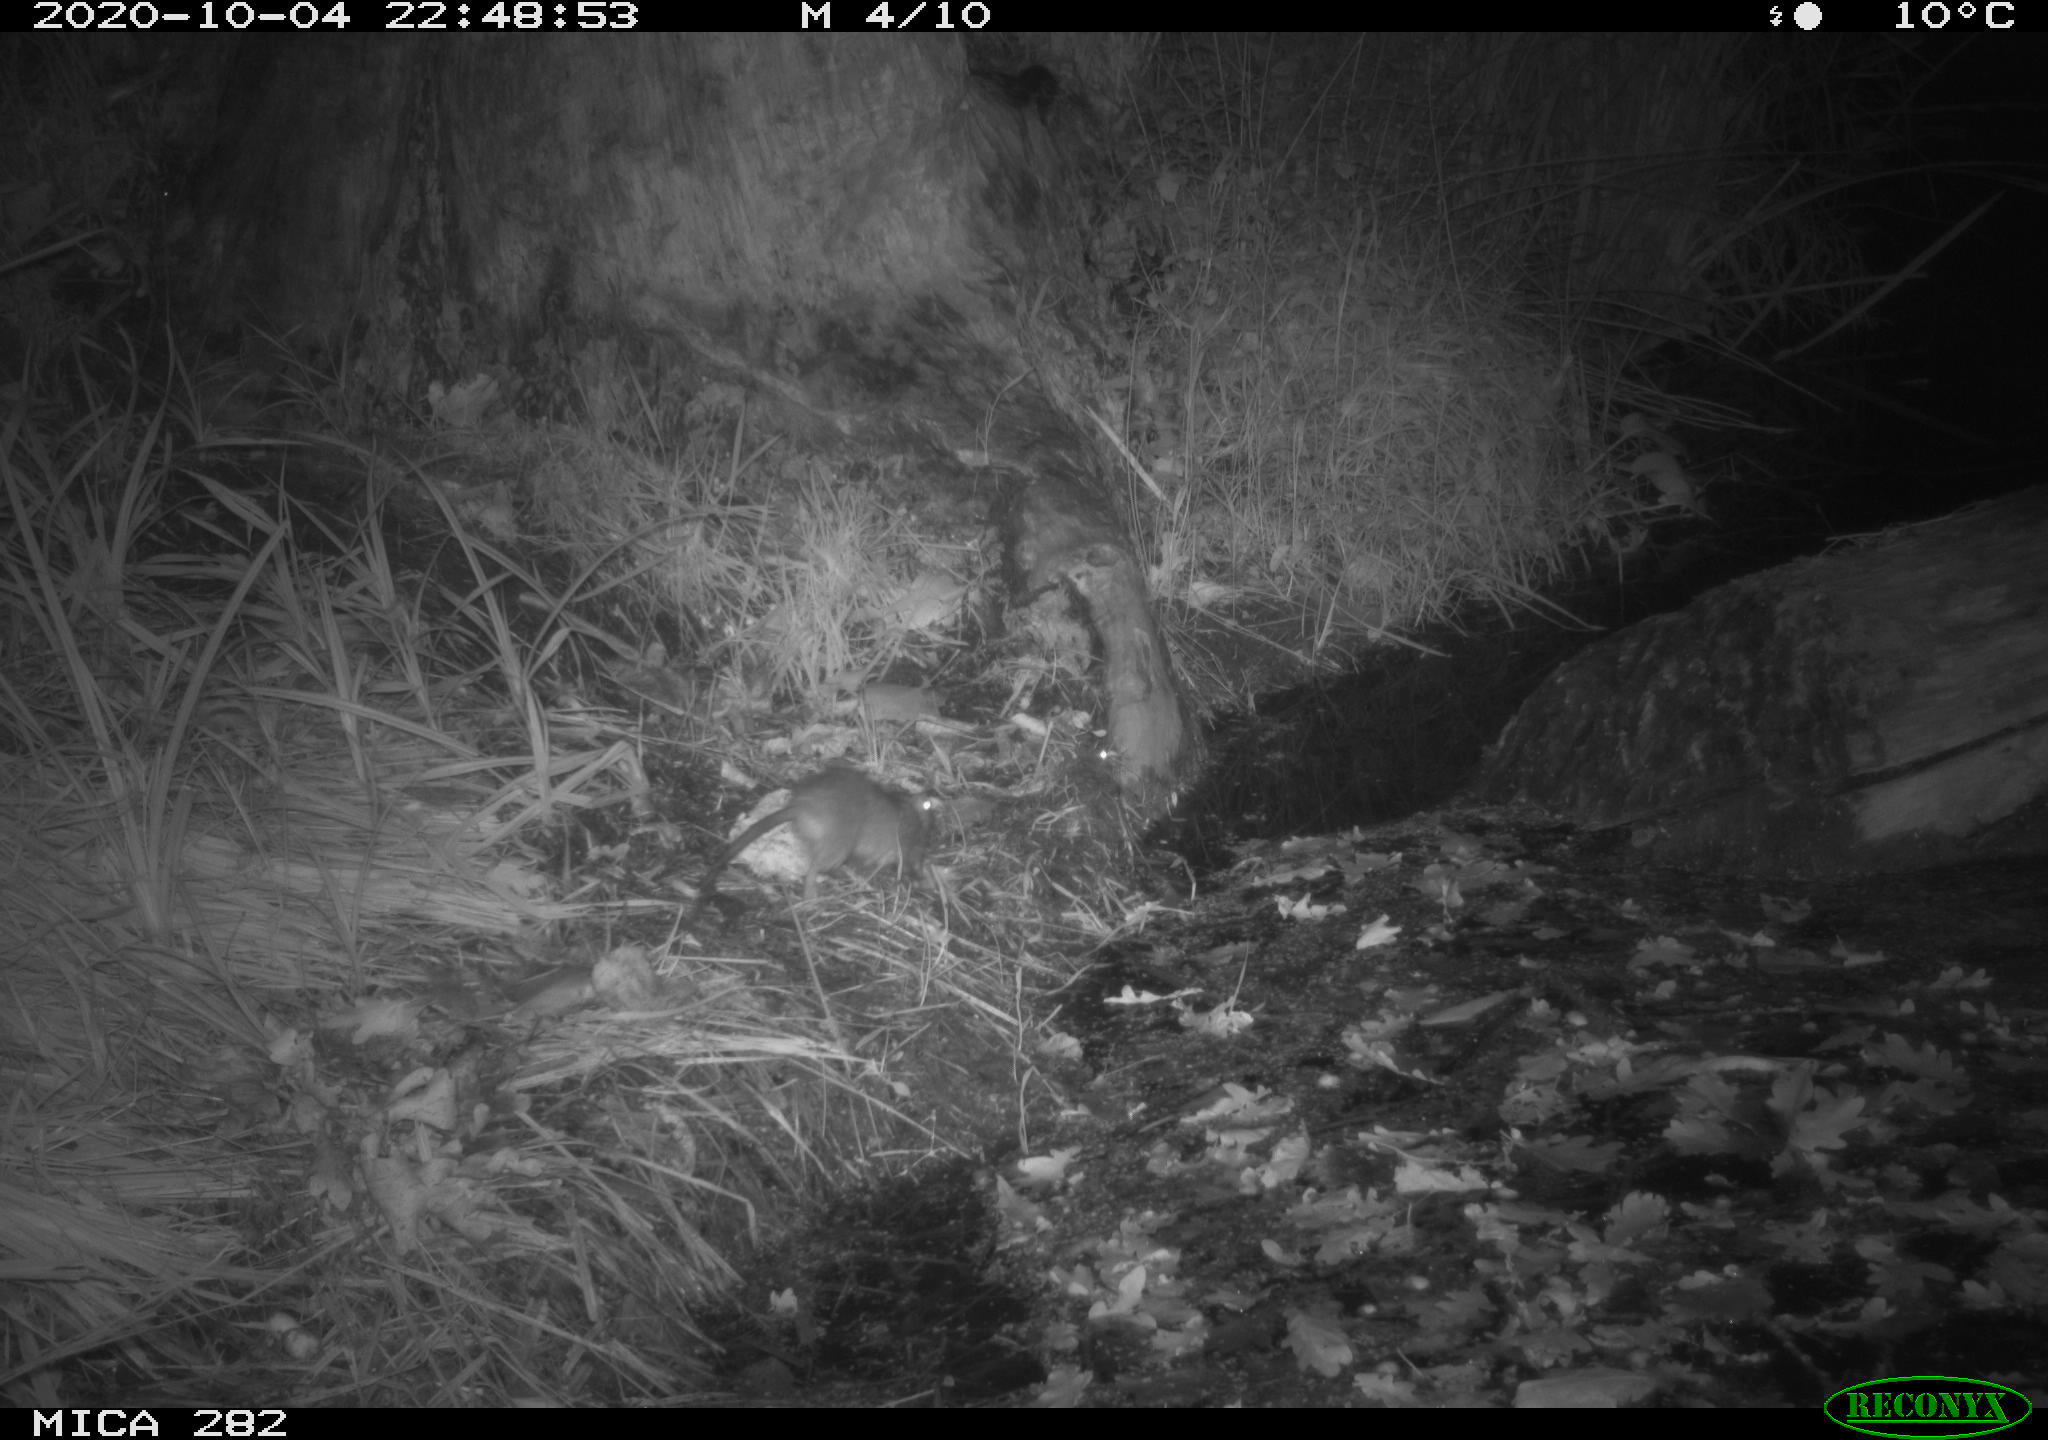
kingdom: Animalia
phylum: Chordata
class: Mammalia
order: Rodentia
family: Muridae
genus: Rattus
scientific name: Rattus norvegicus
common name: Brown rat
